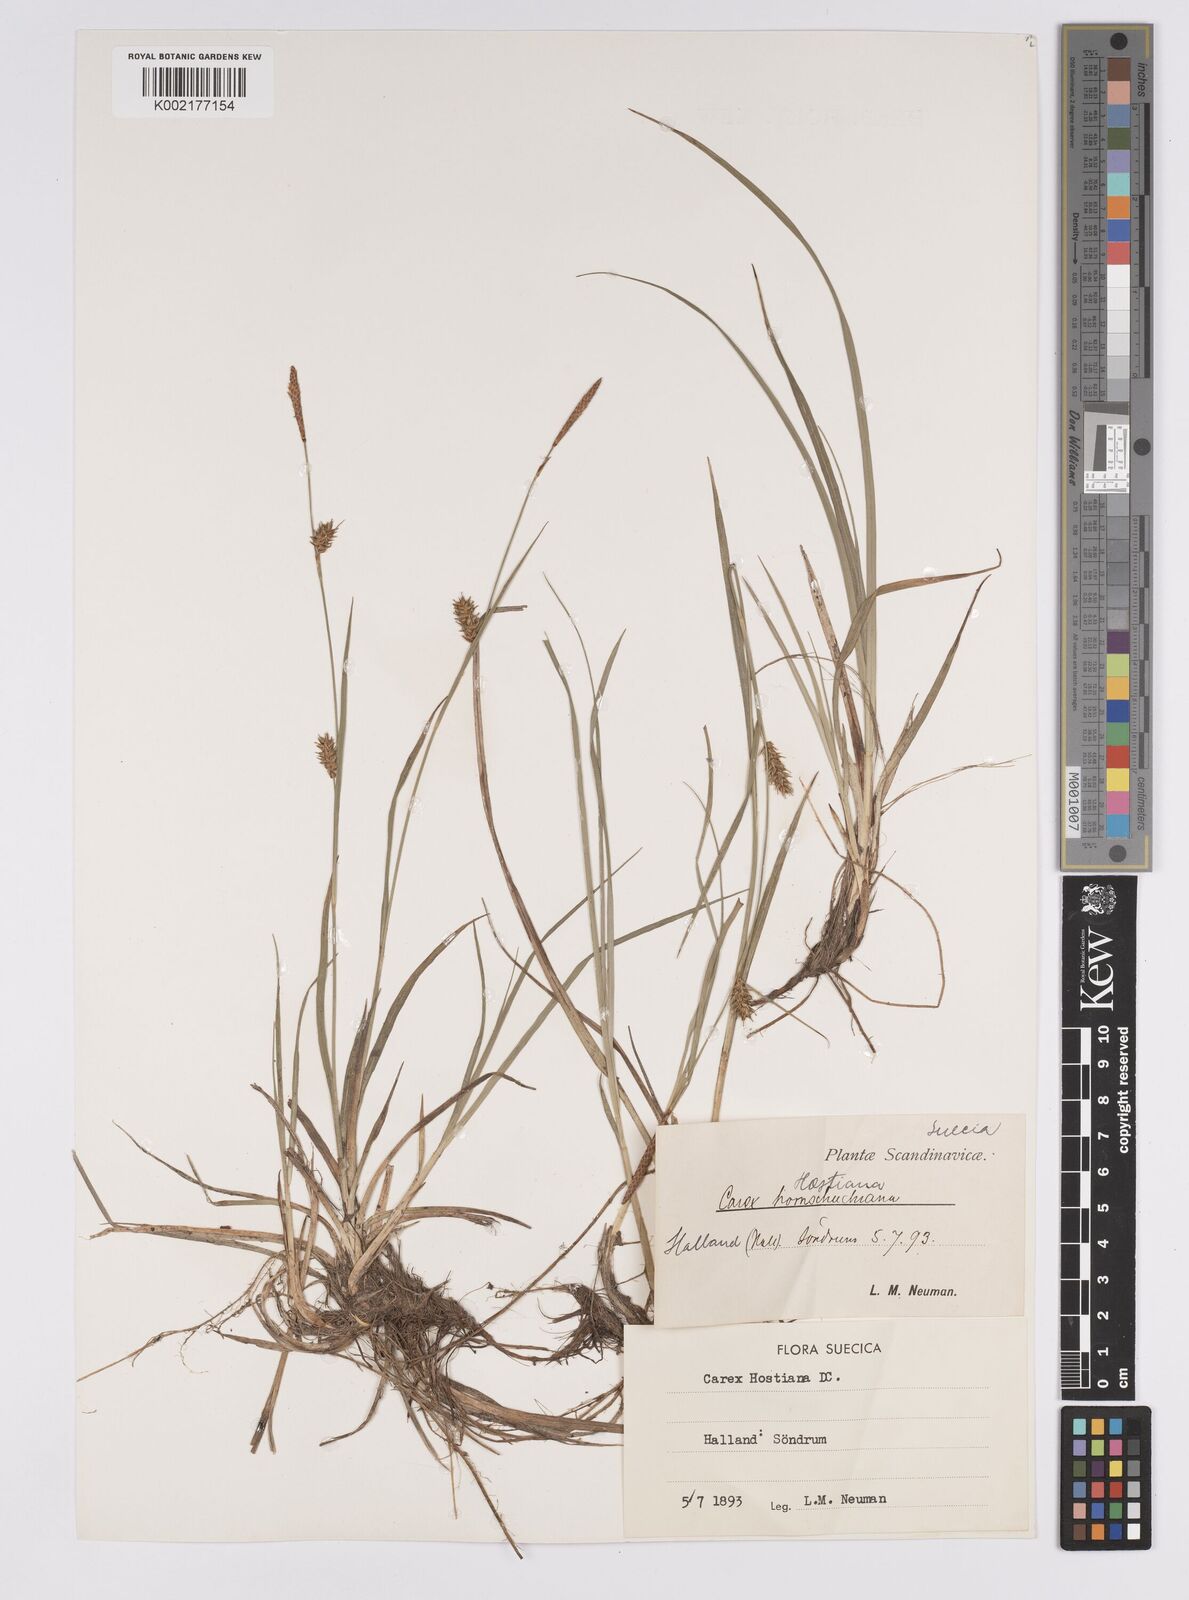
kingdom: Plantae
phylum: Tracheophyta
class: Liliopsida
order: Poales
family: Cyperaceae
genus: Carex
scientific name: Carex hostiana
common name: Tawny sedge
